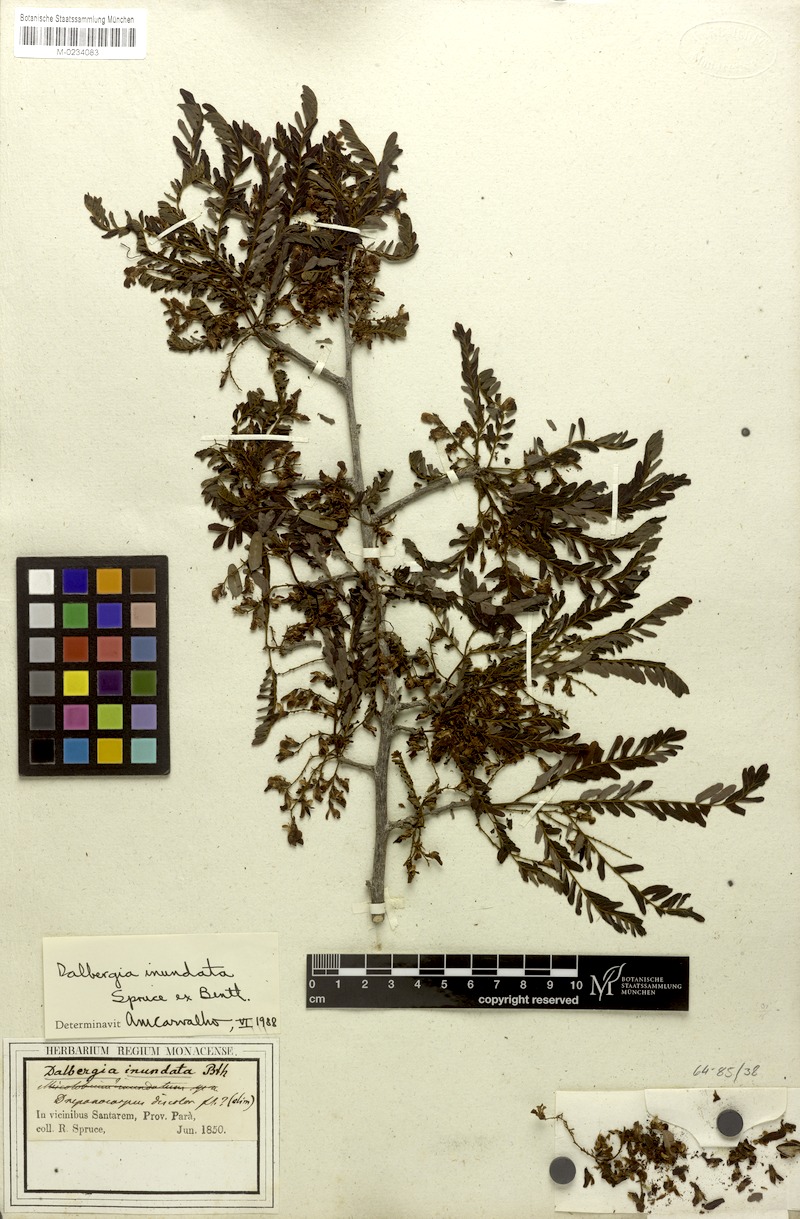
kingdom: Plantae
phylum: Tracheophyta
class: Magnoliopsida
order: Fabales
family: Fabaceae
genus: Dalbergia
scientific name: Dalbergia inundata
